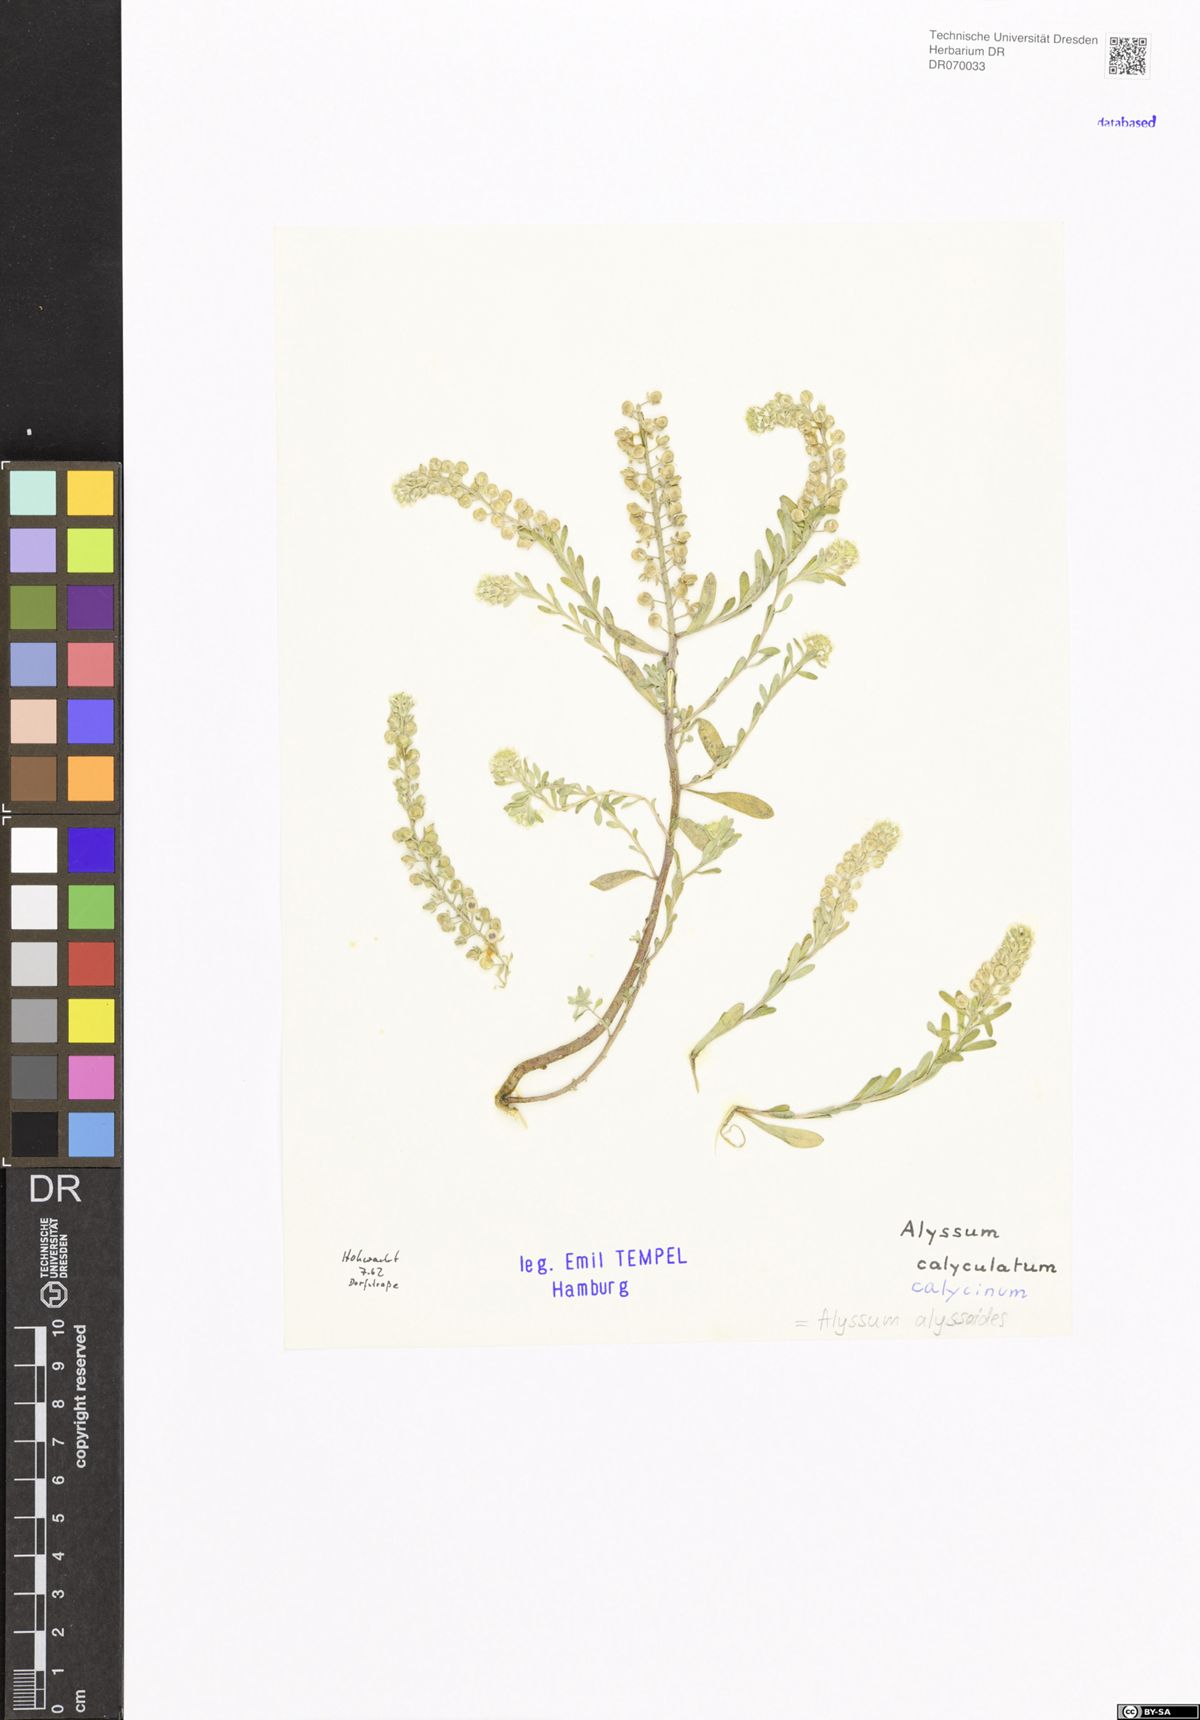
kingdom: Plantae
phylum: Tracheophyta
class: Magnoliopsida
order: Brassicales
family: Brassicaceae
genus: Alyssum
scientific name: Alyssum alyssoides
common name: Small alison
